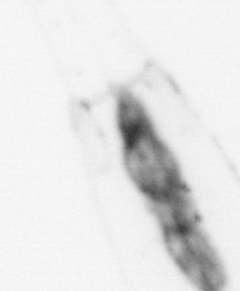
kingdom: Animalia
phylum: Chaetognatha
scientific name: Chaetognatha
